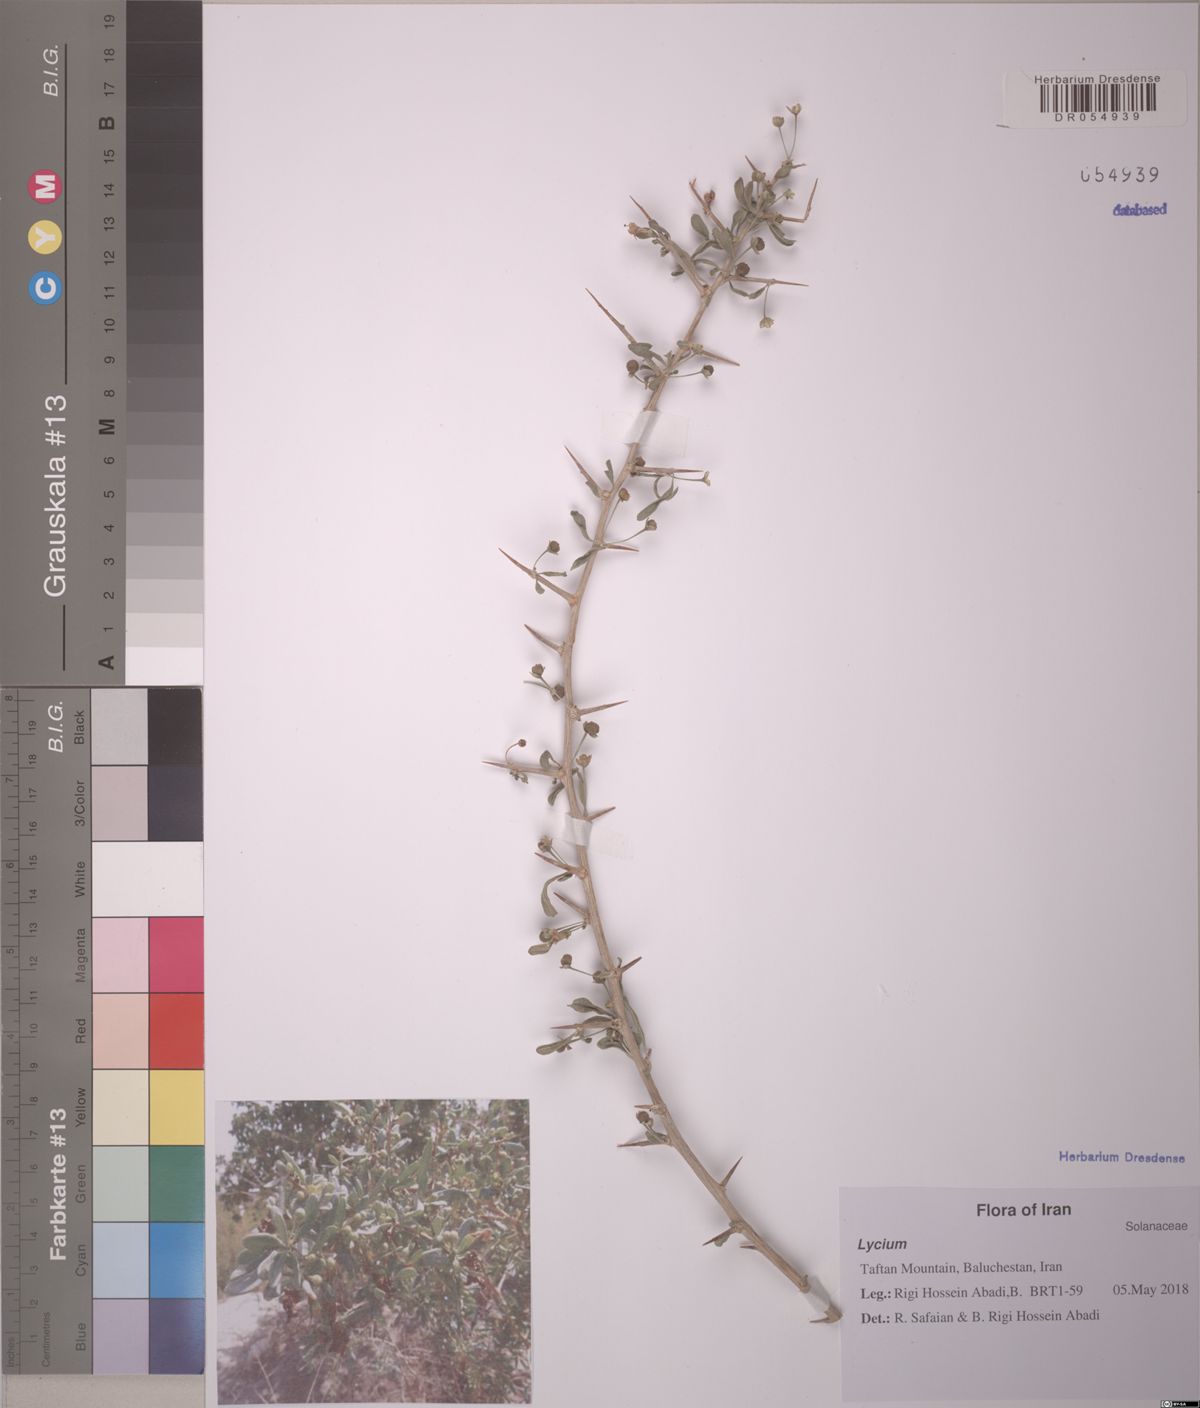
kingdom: Plantae
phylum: Tracheophyta
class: Magnoliopsida
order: Solanales
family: Solanaceae
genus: Lycium
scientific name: Lycium depressum
